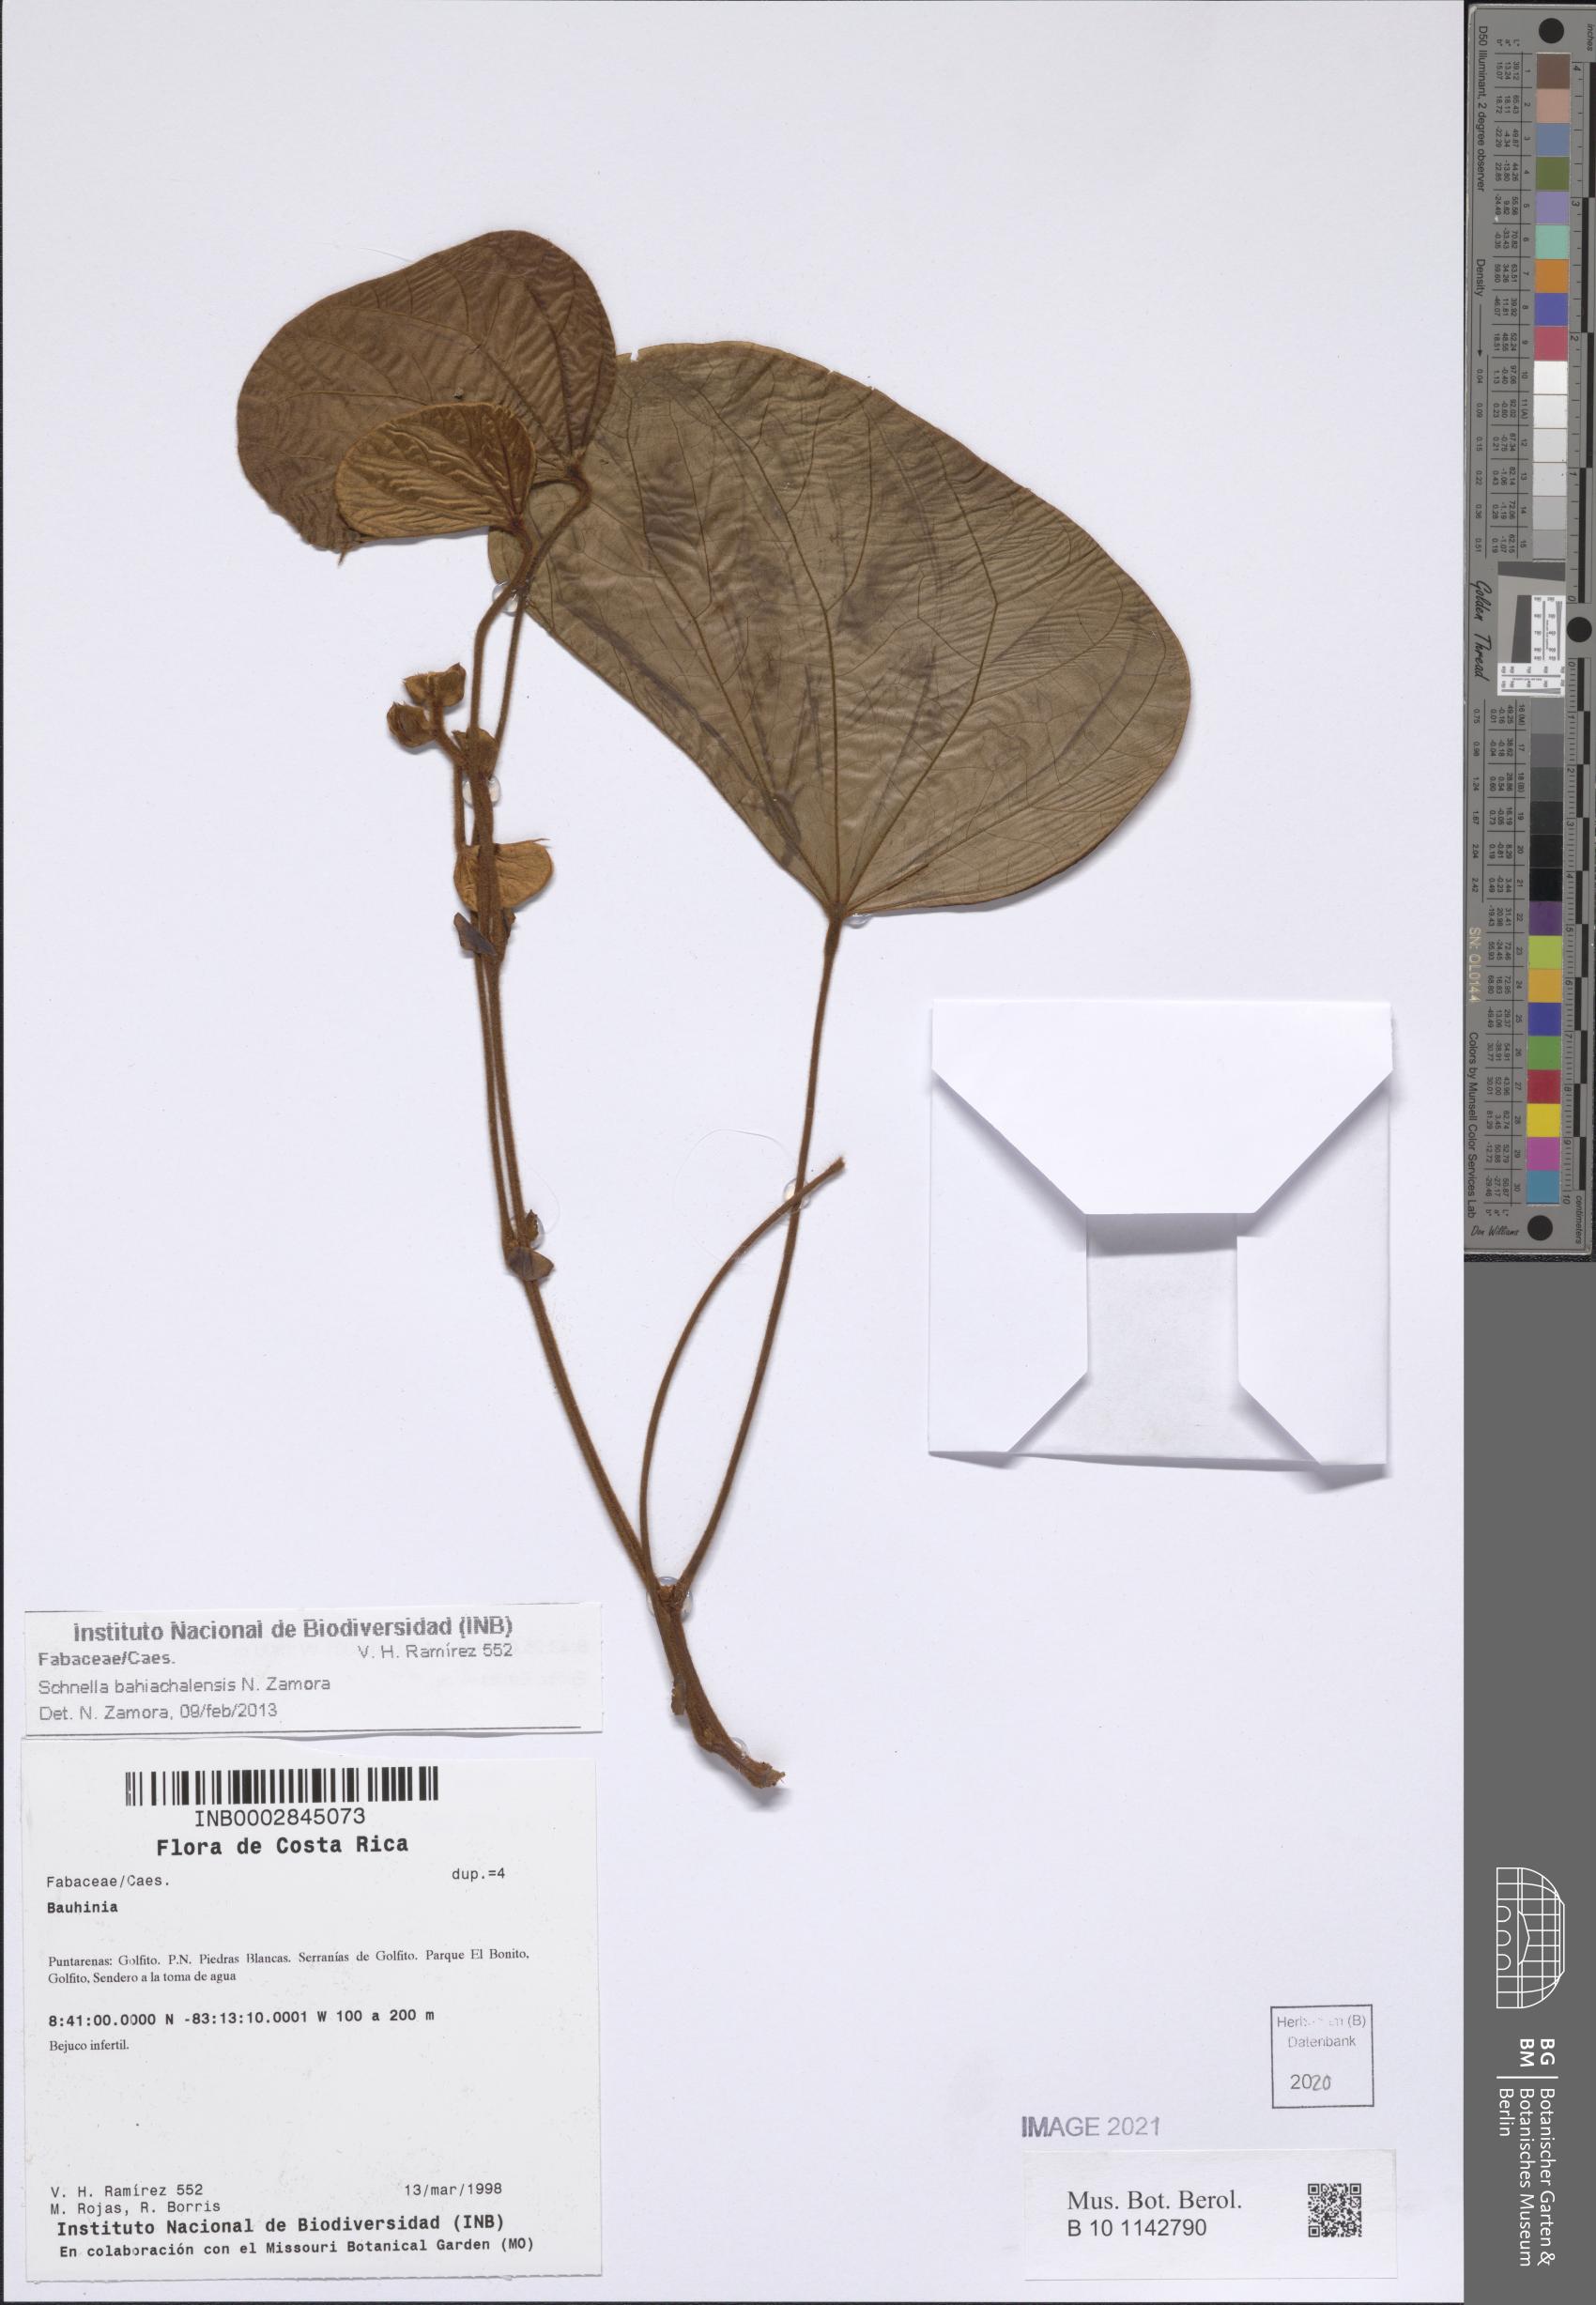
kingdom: Plantae
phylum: Tracheophyta
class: Magnoliopsida
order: Fabales
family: Fabaceae
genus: Schnella
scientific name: Schnella bahiachalensis
